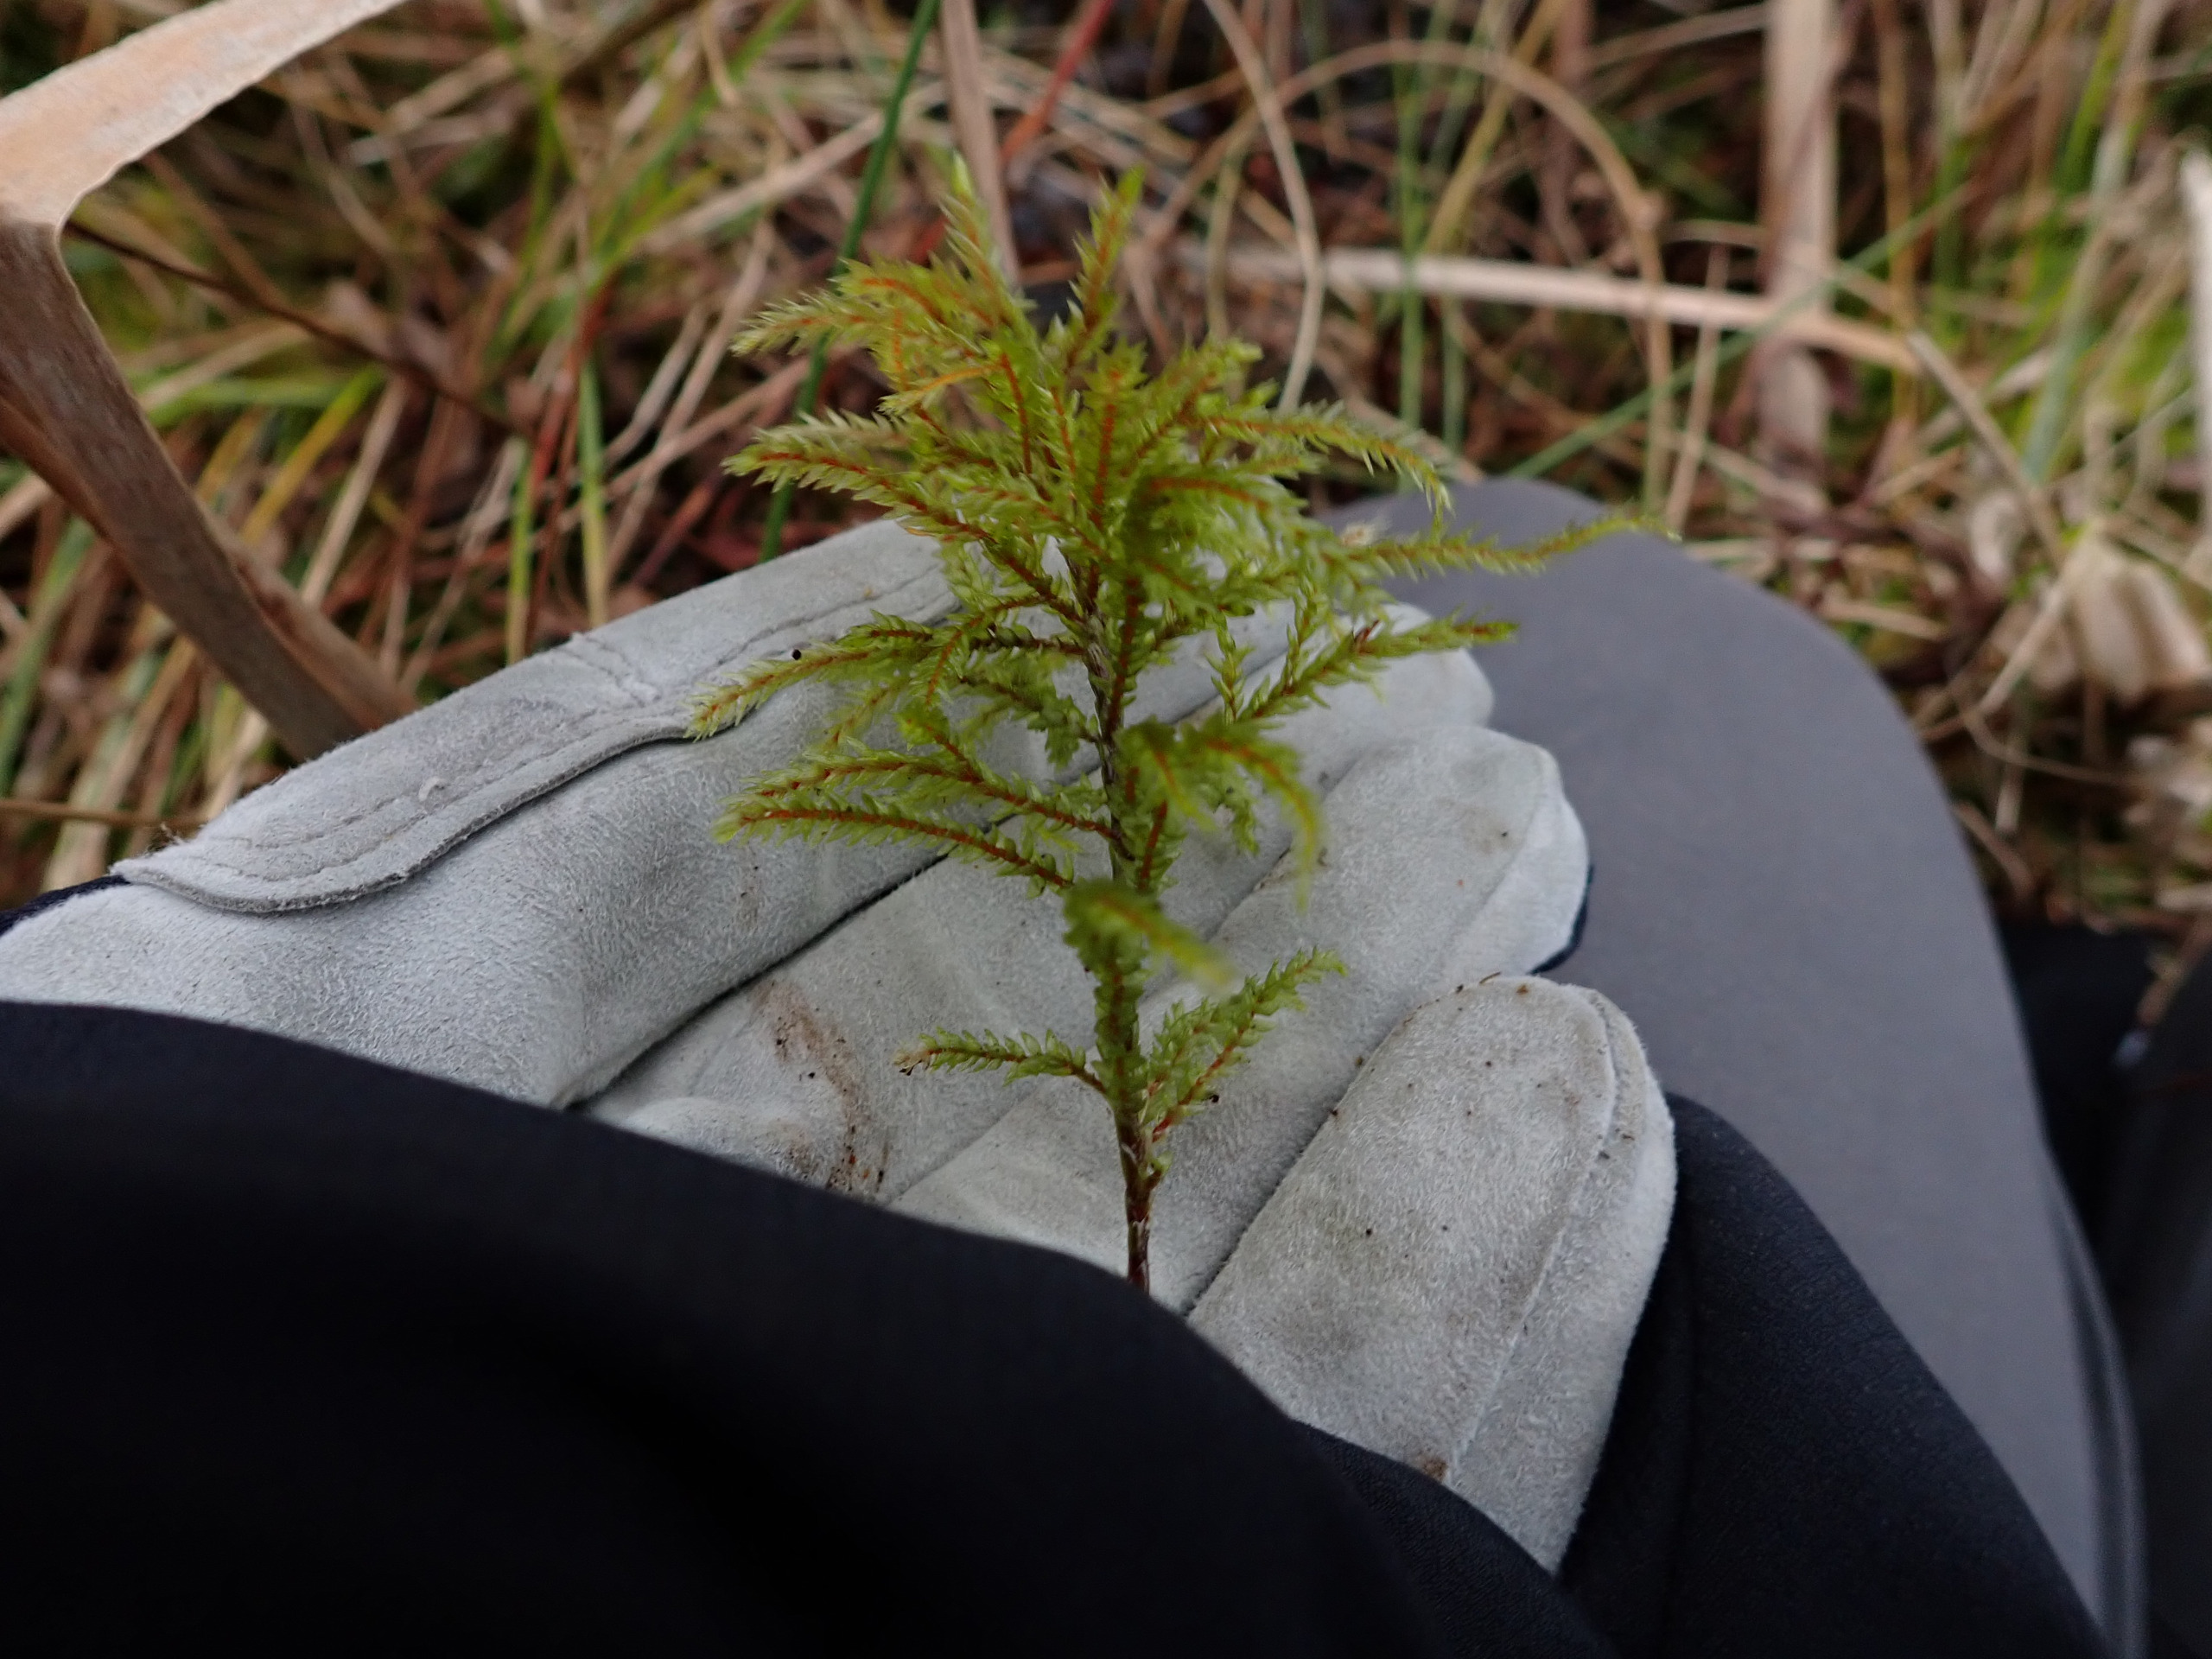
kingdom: Plantae
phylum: Bryophyta
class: Bryopsida
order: Hypnales
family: Climaciaceae
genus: Climacium
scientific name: Climacium dendroides
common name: Stor engkost
